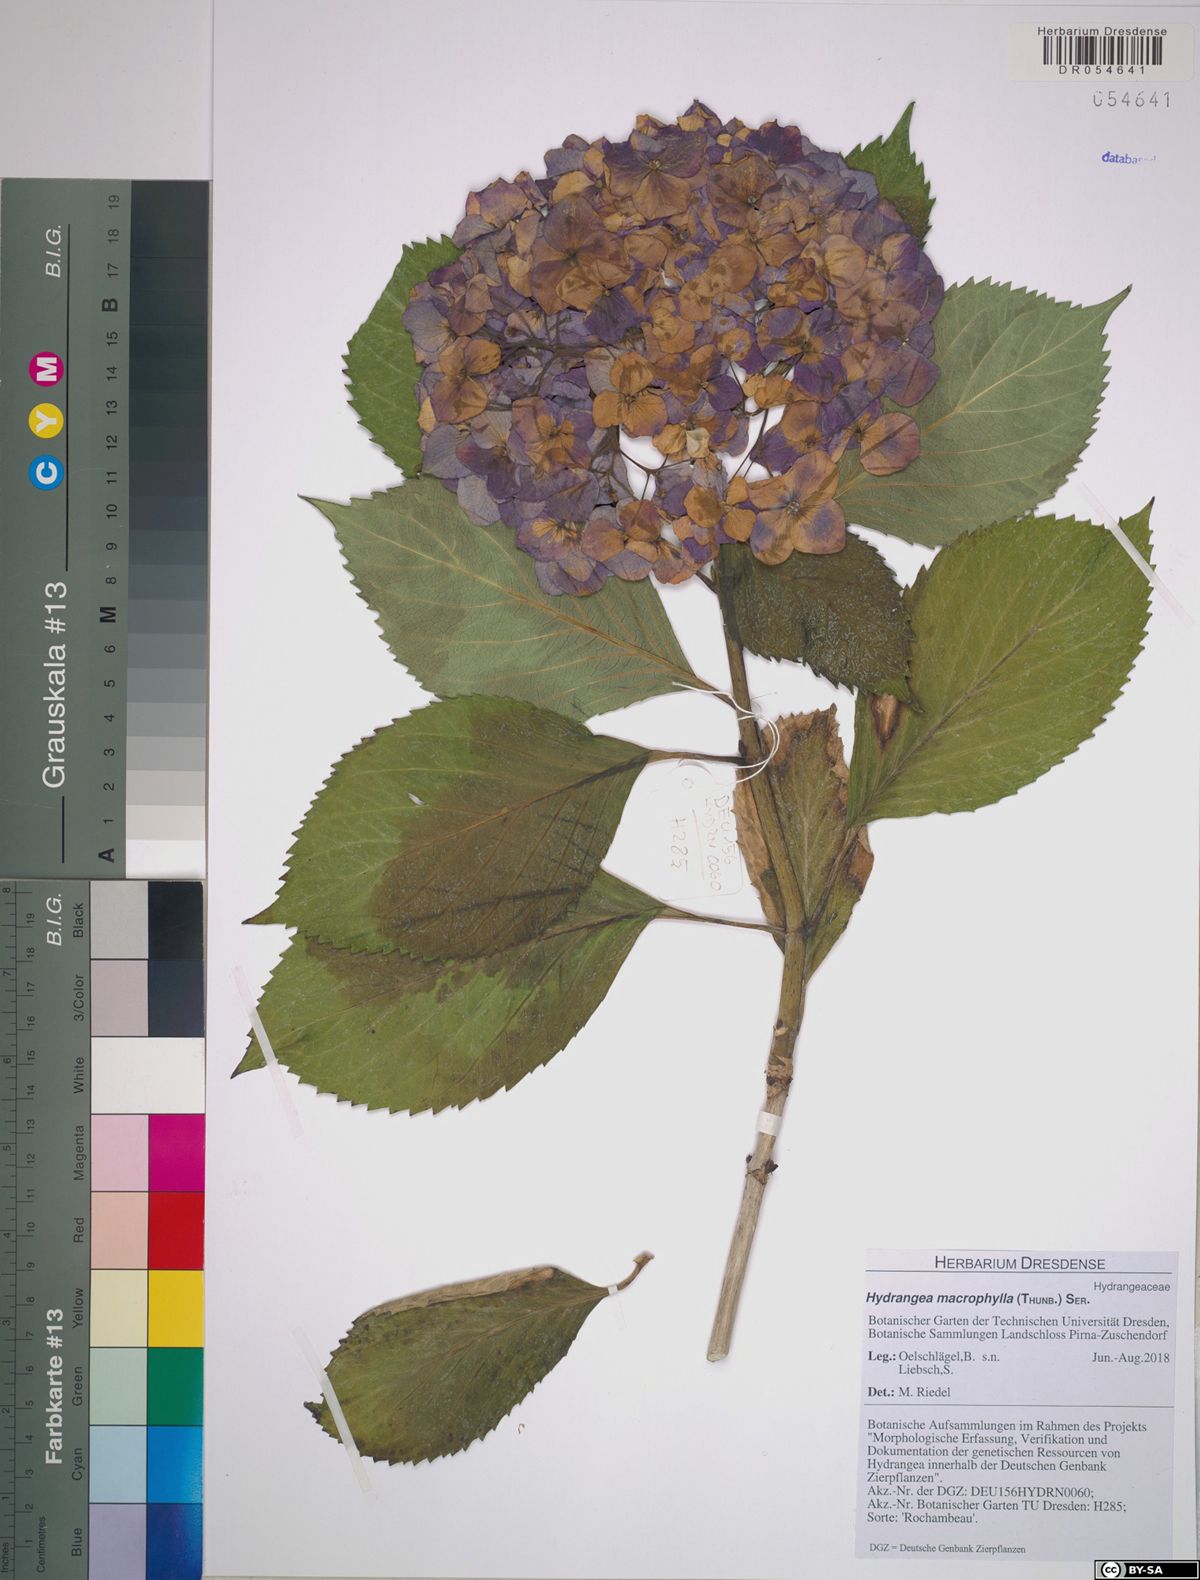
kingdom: Plantae
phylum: Tracheophyta
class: Magnoliopsida
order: Cornales
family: Hydrangeaceae
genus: Hydrangea
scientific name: Hydrangea macrophylla
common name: Hydrangea
